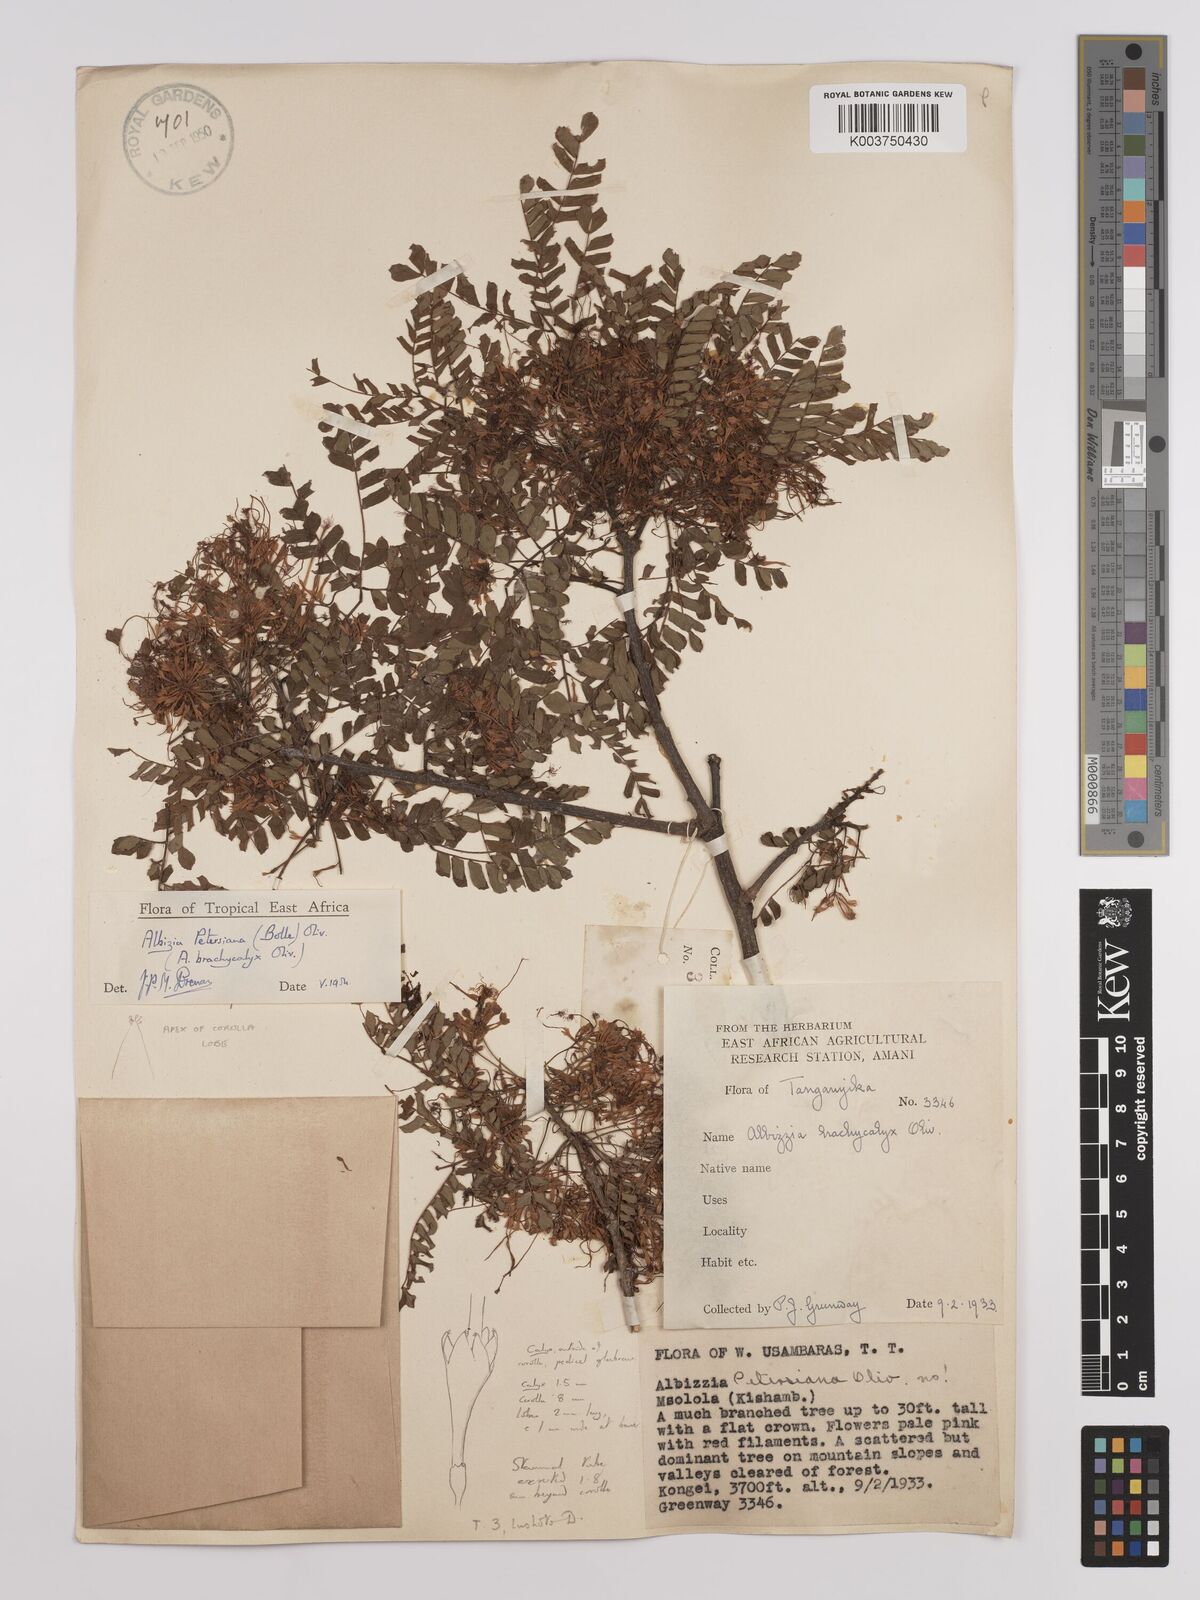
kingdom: Plantae
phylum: Tracheophyta
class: Magnoliopsida
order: Fabales
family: Fabaceae
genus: Albizia
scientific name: Albizia petersiana
